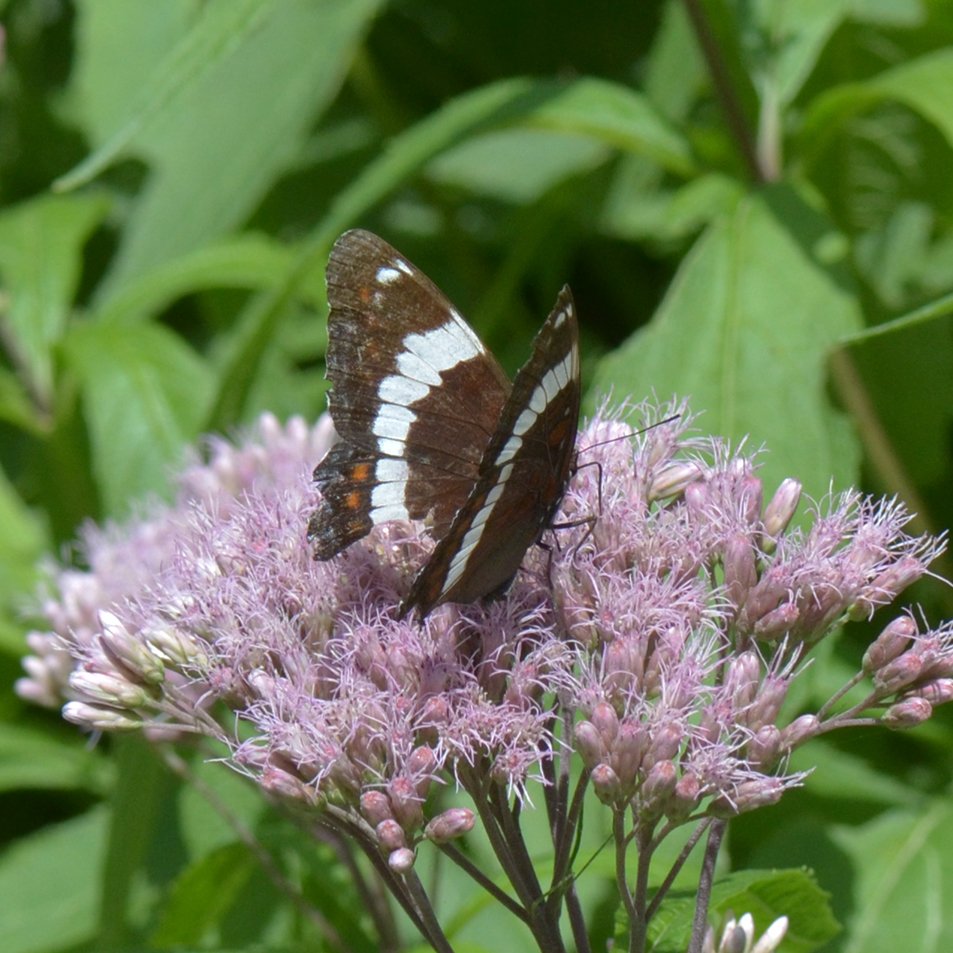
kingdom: Animalia
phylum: Arthropoda
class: Insecta
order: Lepidoptera
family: Nymphalidae
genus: Limenitis
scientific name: Limenitis arthemis
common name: Red-spotted Admiral
